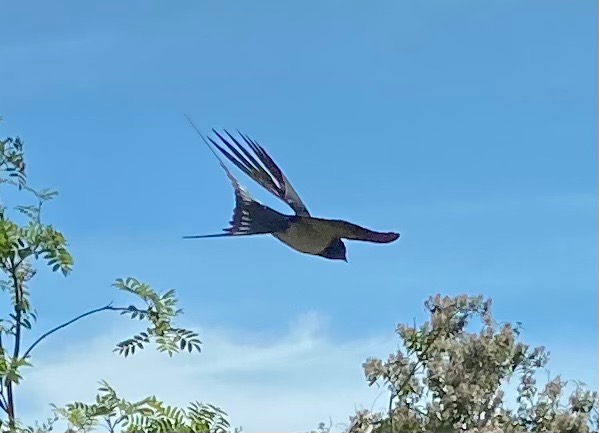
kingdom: Animalia
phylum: Chordata
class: Aves
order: Passeriformes
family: Hirundinidae
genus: Hirundo
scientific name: Hirundo rustica
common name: Landsvale
